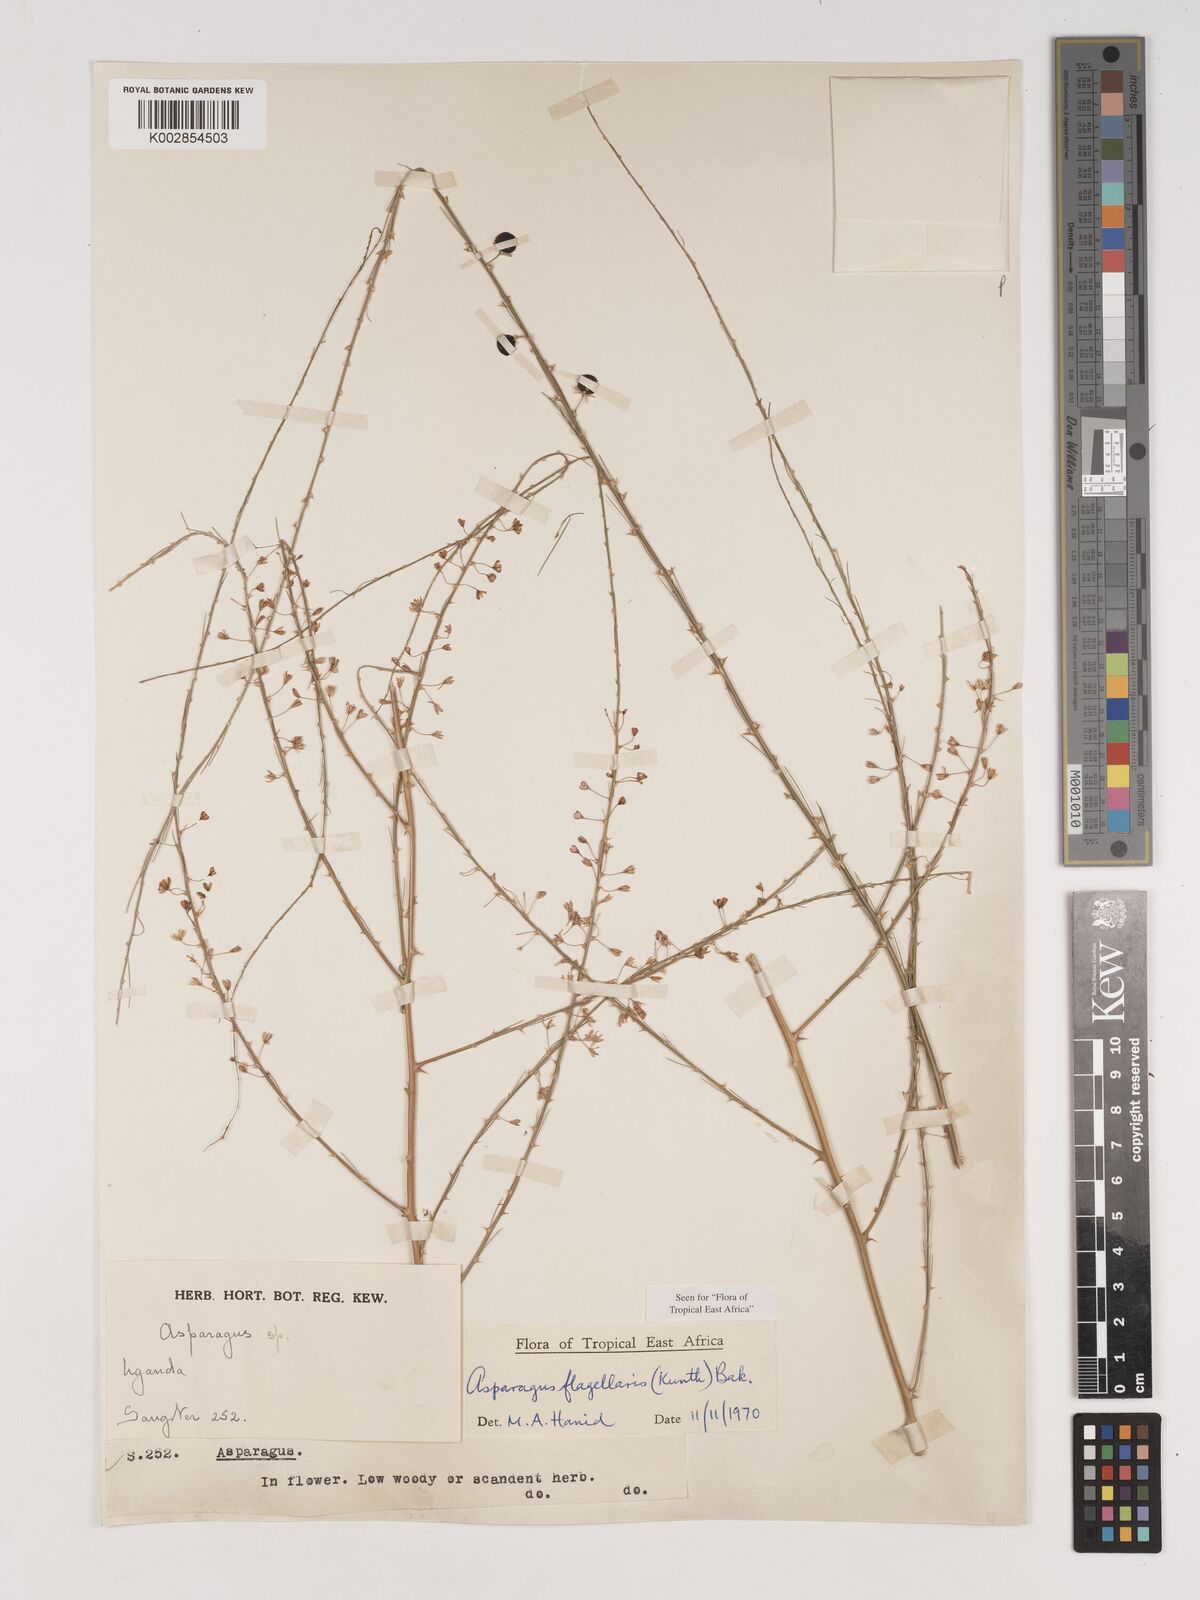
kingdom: Plantae
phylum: Tracheophyta
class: Liliopsida
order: Asparagales
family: Asparagaceae
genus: Asparagus
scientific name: Asparagus flagellaris
